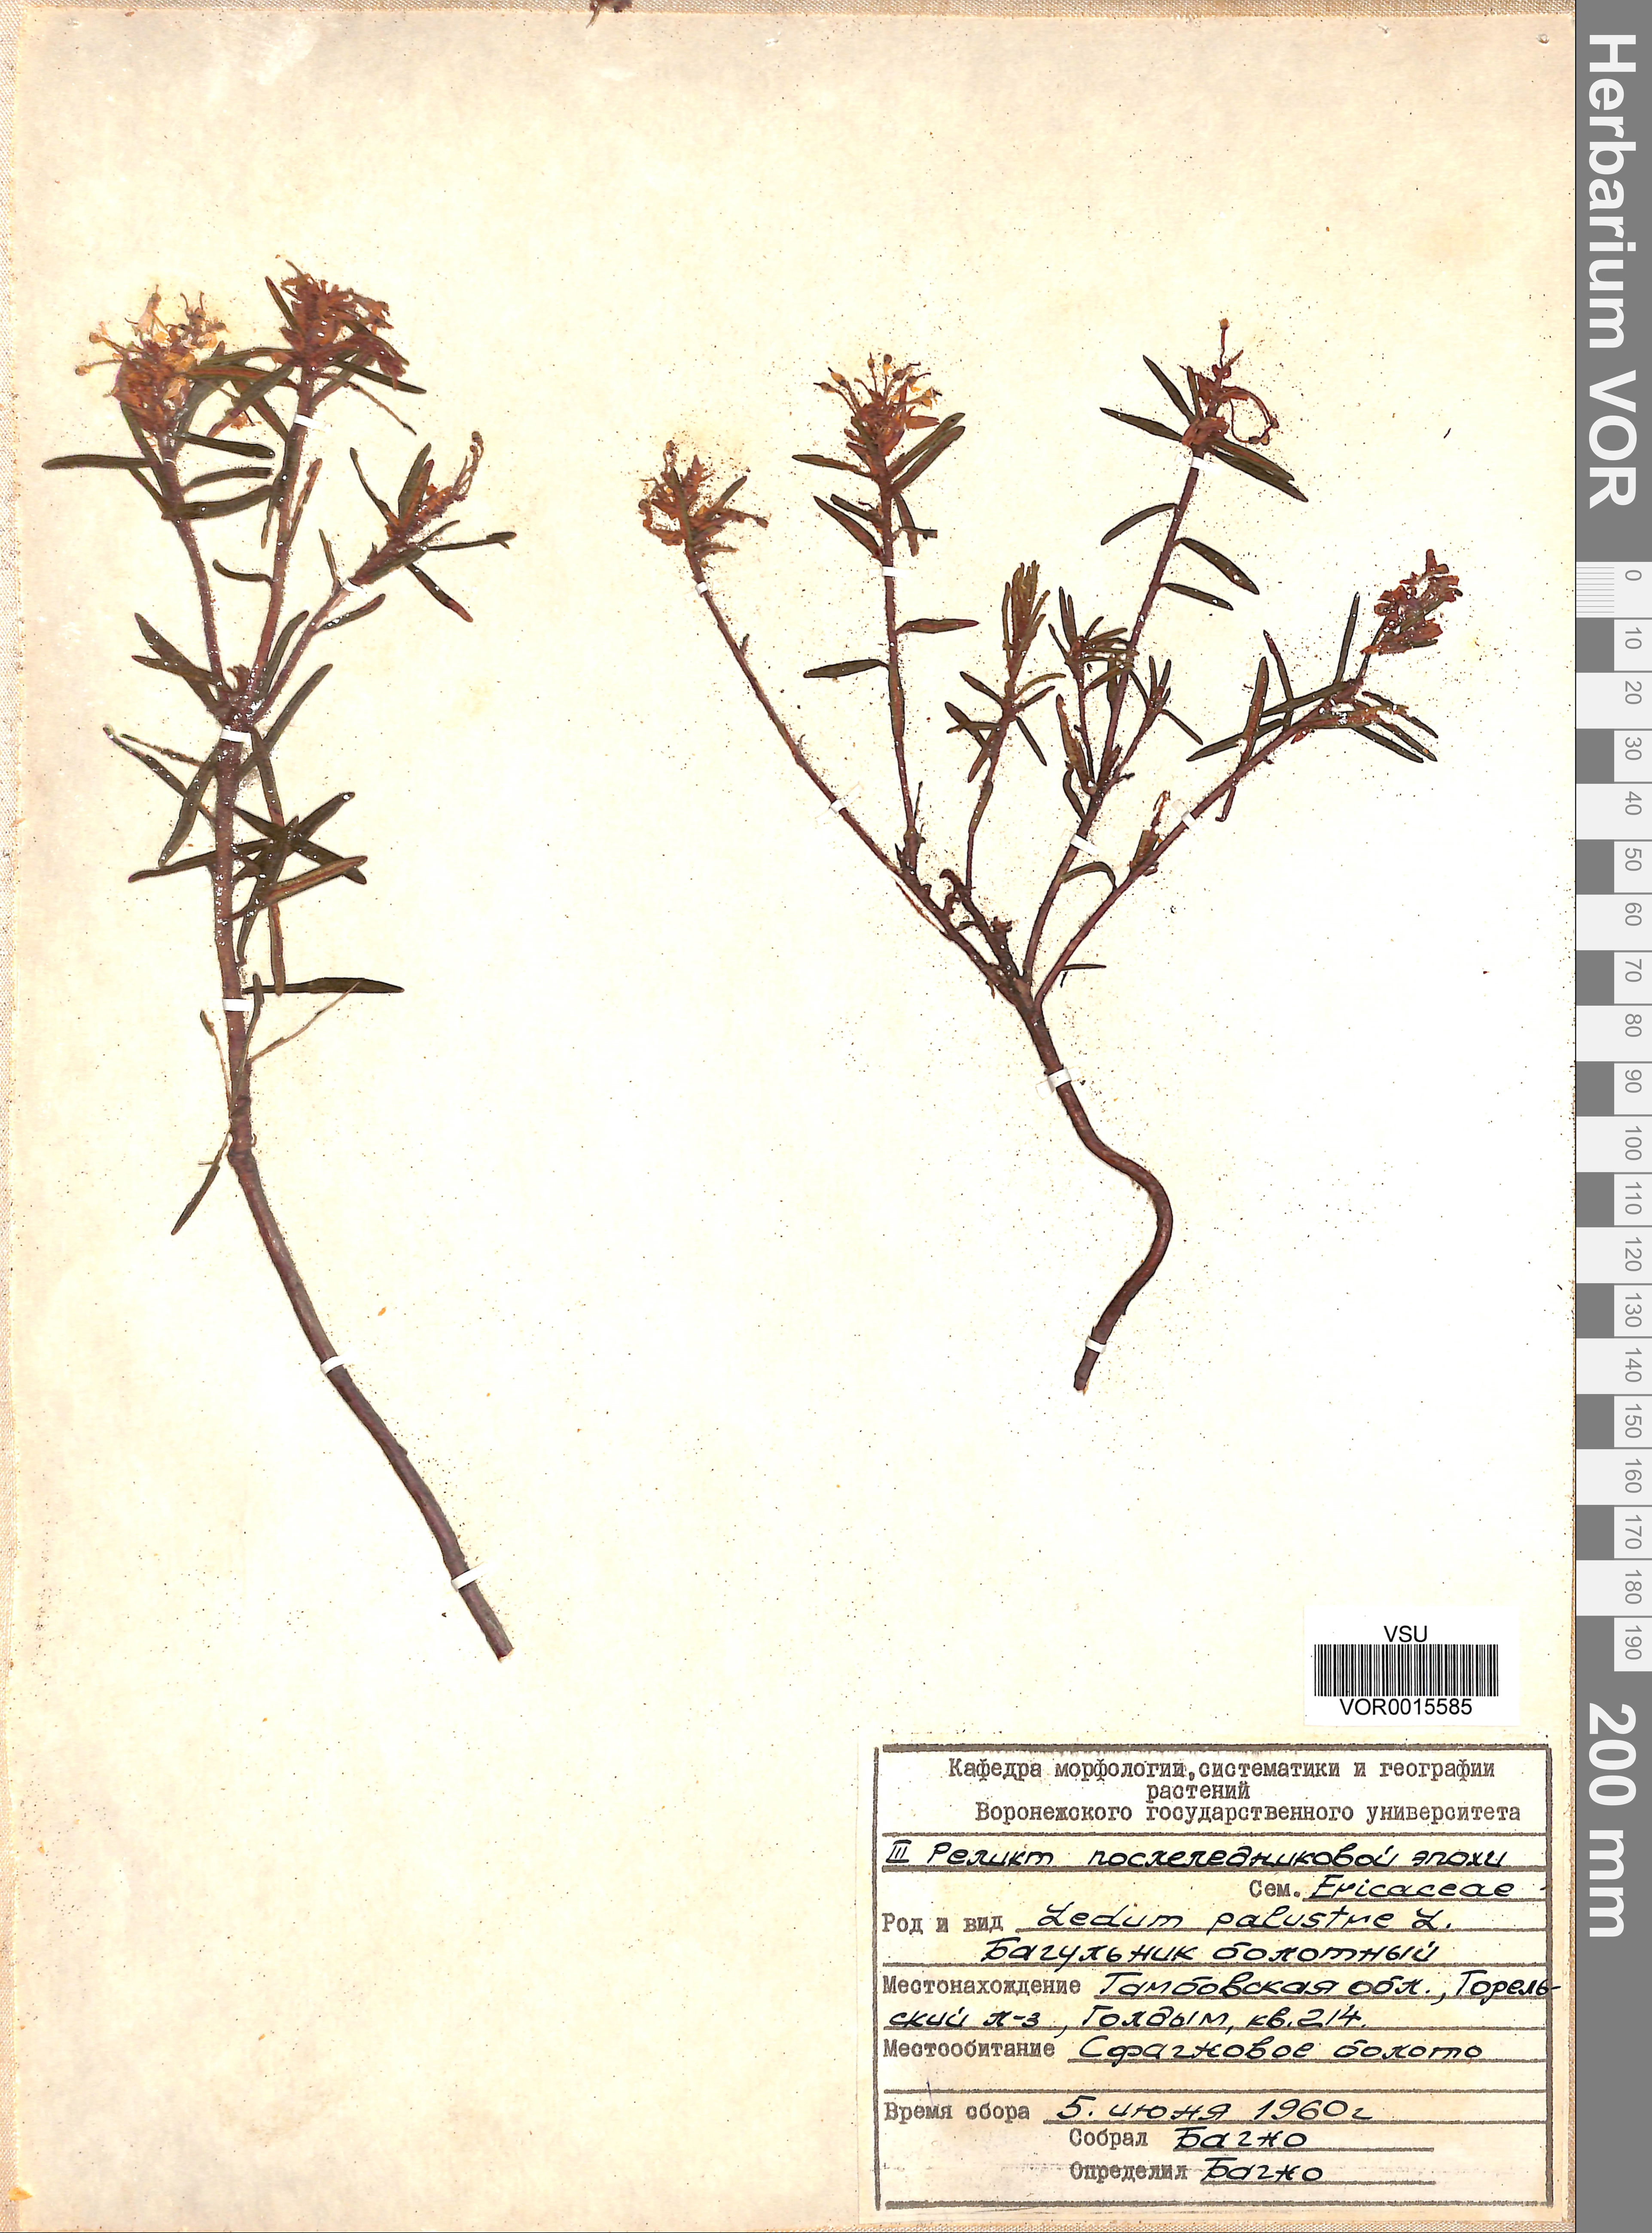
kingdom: Plantae
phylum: Tracheophyta
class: Magnoliopsida
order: Ericales
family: Ericaceae
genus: Rhododendron
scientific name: Rhododendron tomentosum
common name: Marsh labrador tea
